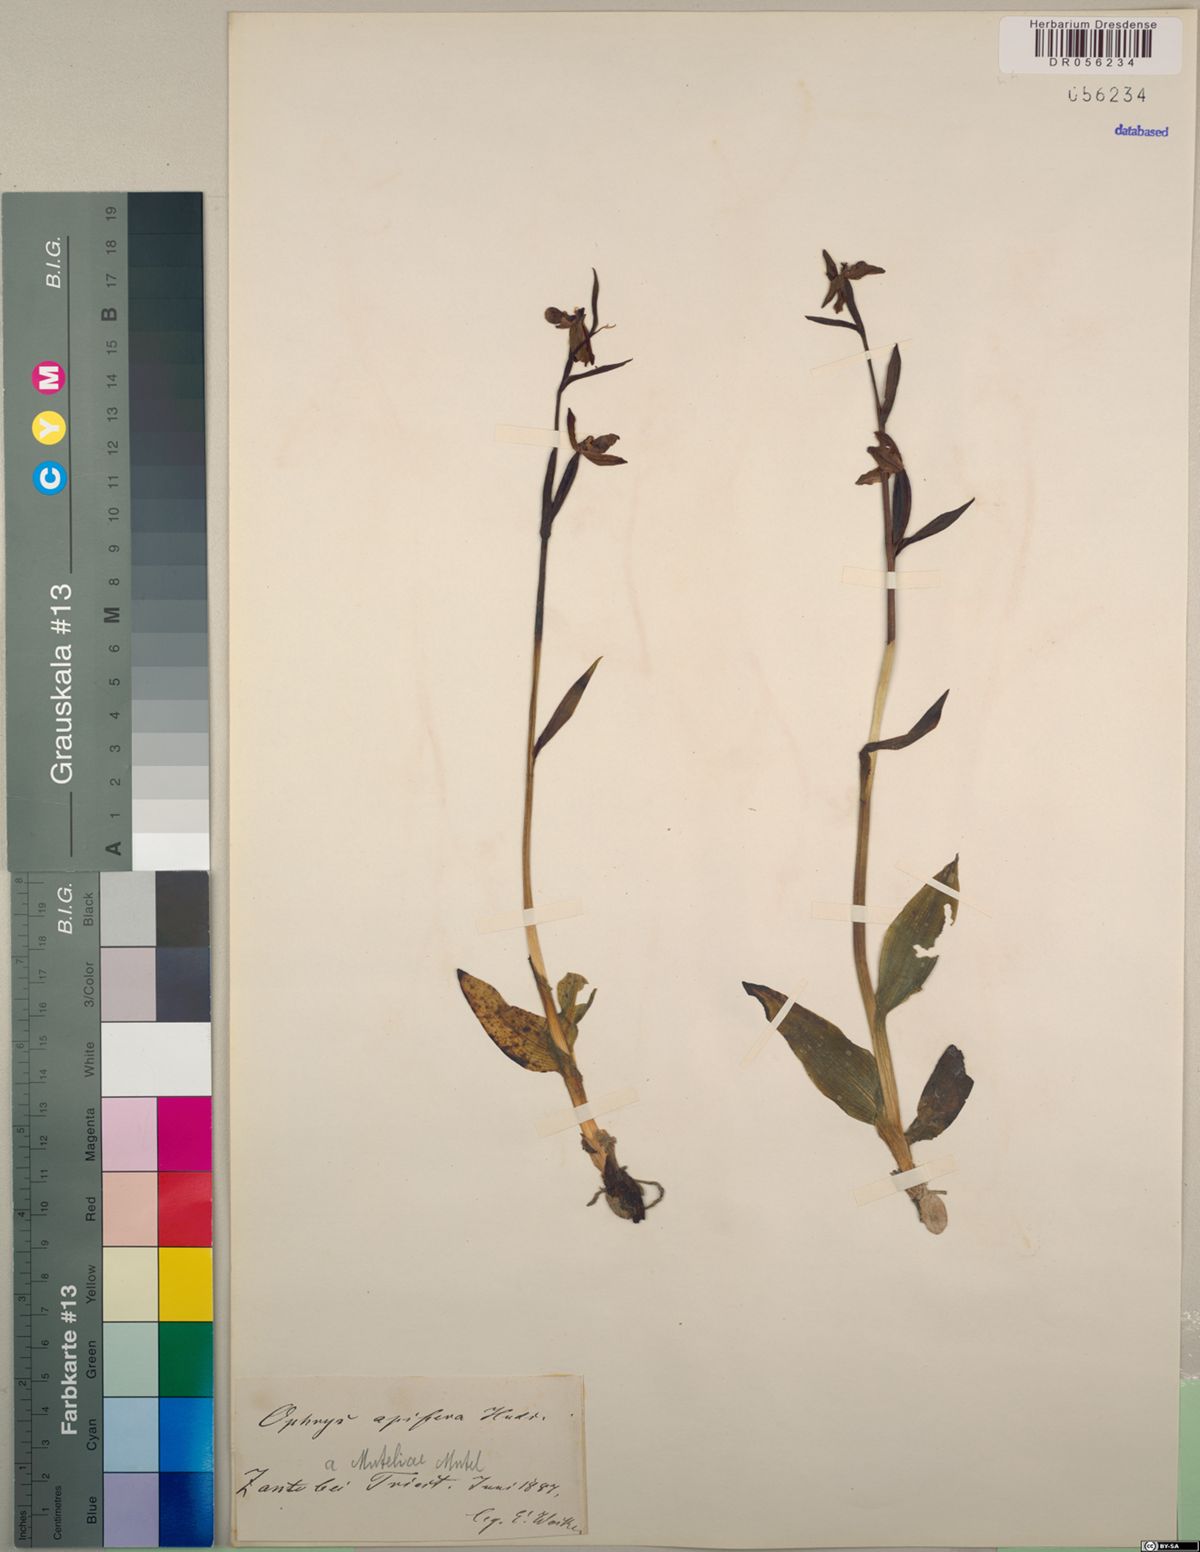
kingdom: Plantae
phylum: Tracheophyta
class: Liliopsida
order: Asparagales
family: Orchidaceae
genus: Ophrys
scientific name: Ophrys apifera
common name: Bee orchid
